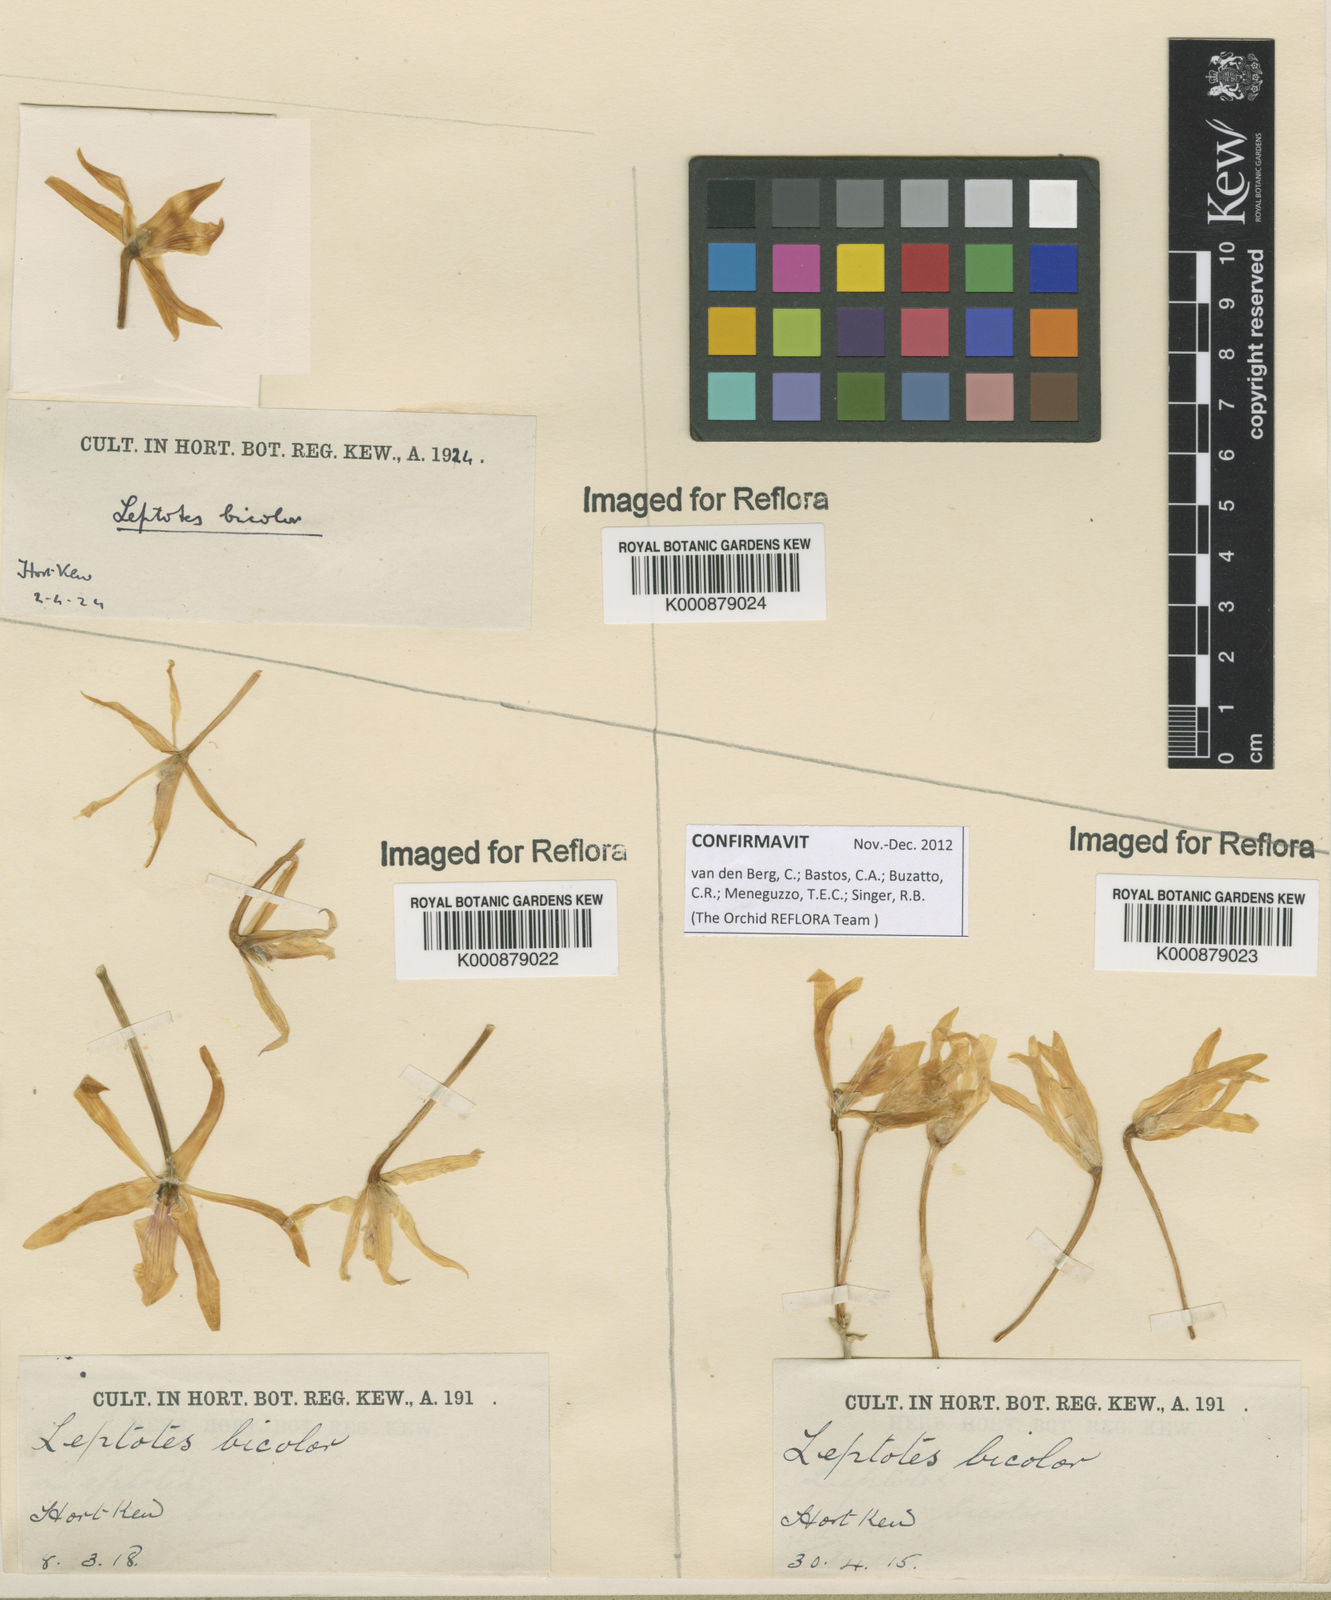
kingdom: Plantae
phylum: Tracheophyta
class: Liliopsida
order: Asparagales
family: Orchidaceae
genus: Leptotes
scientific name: Leptotes
